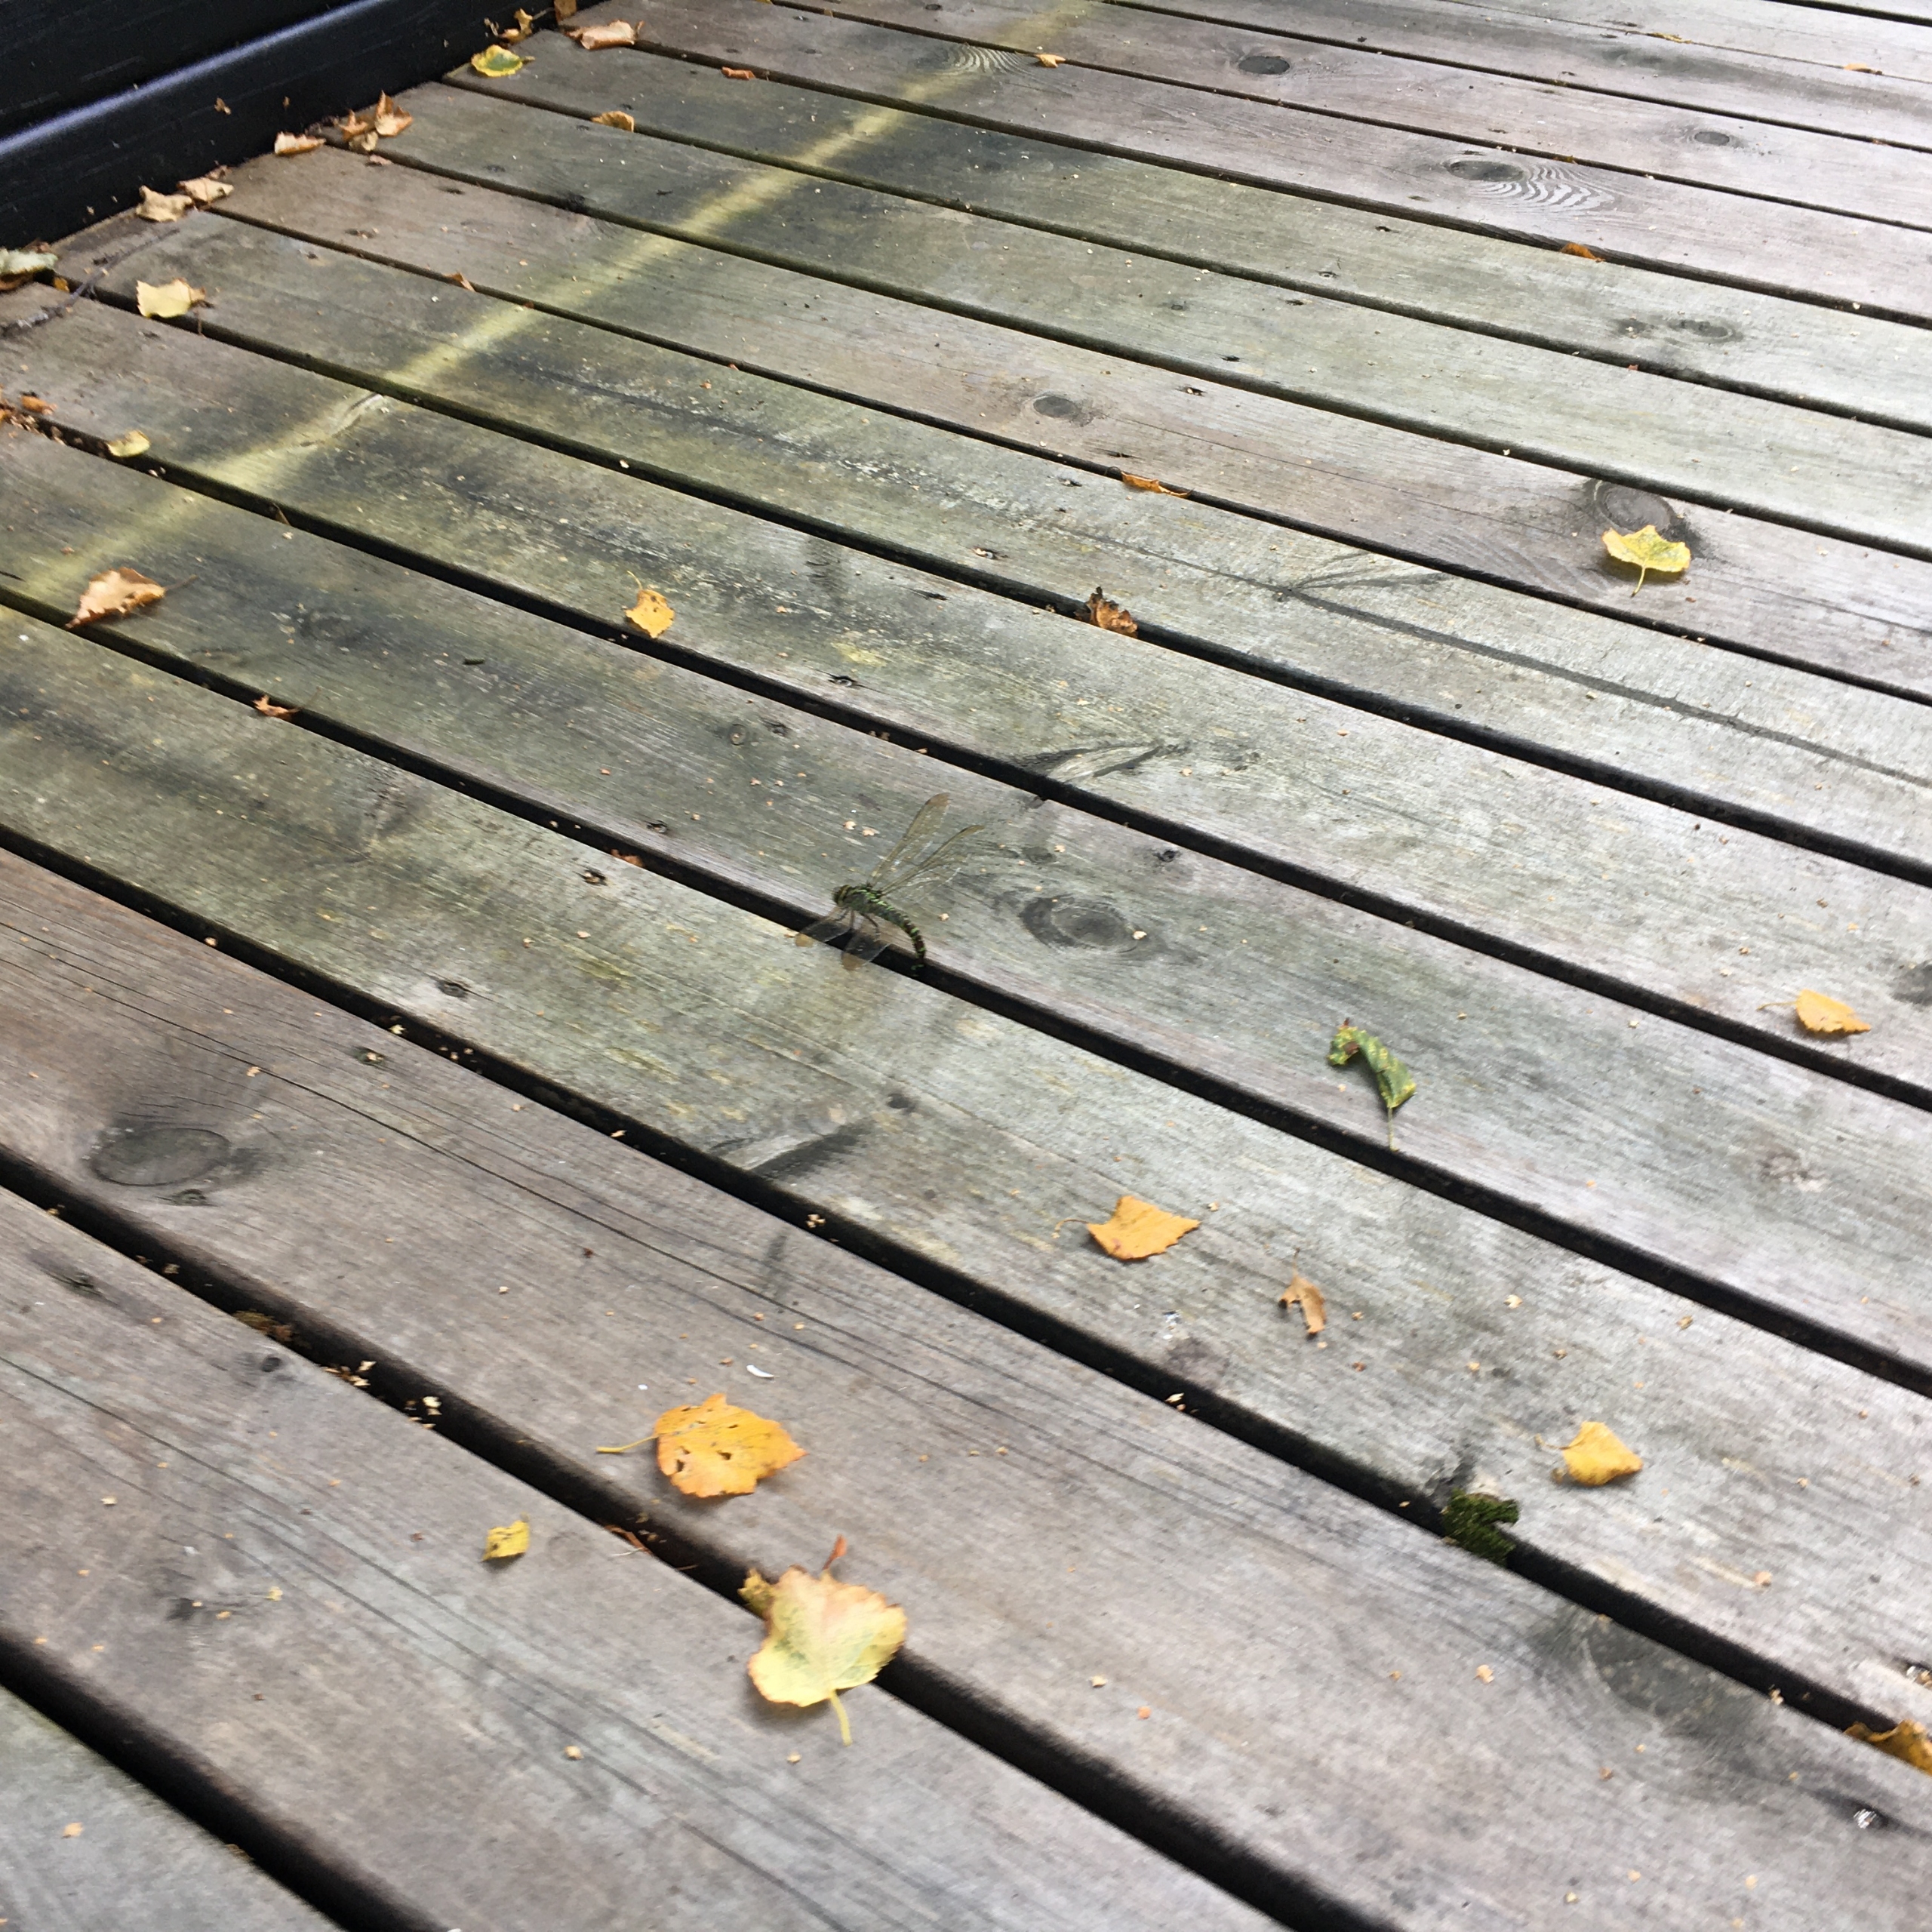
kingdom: Animalia
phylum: Arthropoda
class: Insecta
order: Odonata
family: Aeshnidae
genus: Aeshna
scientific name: Aeshna cyanea
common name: Blå mosaikguldsmed
